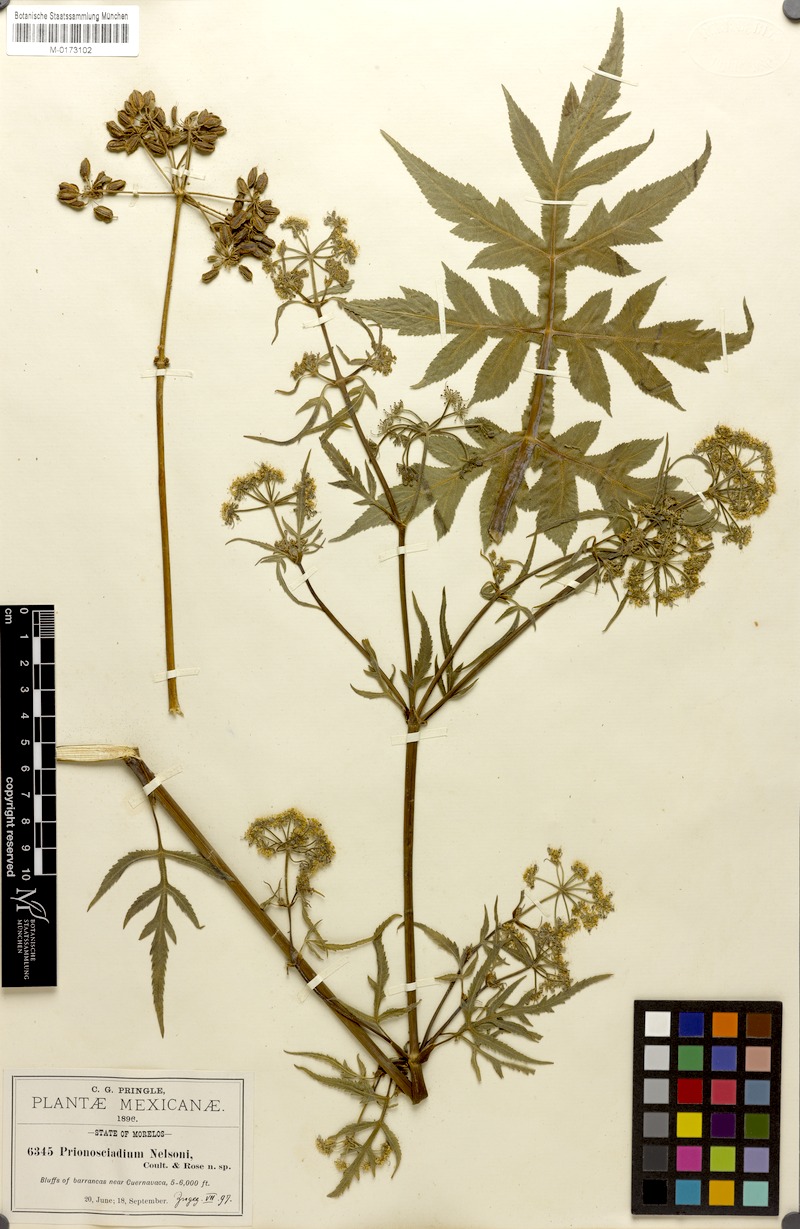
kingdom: Plantae
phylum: Tracheophyta
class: Magnoliopsida
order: Apiales
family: Apiaceae
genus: Prionosciadium
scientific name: Prionosciadium nelsonii
